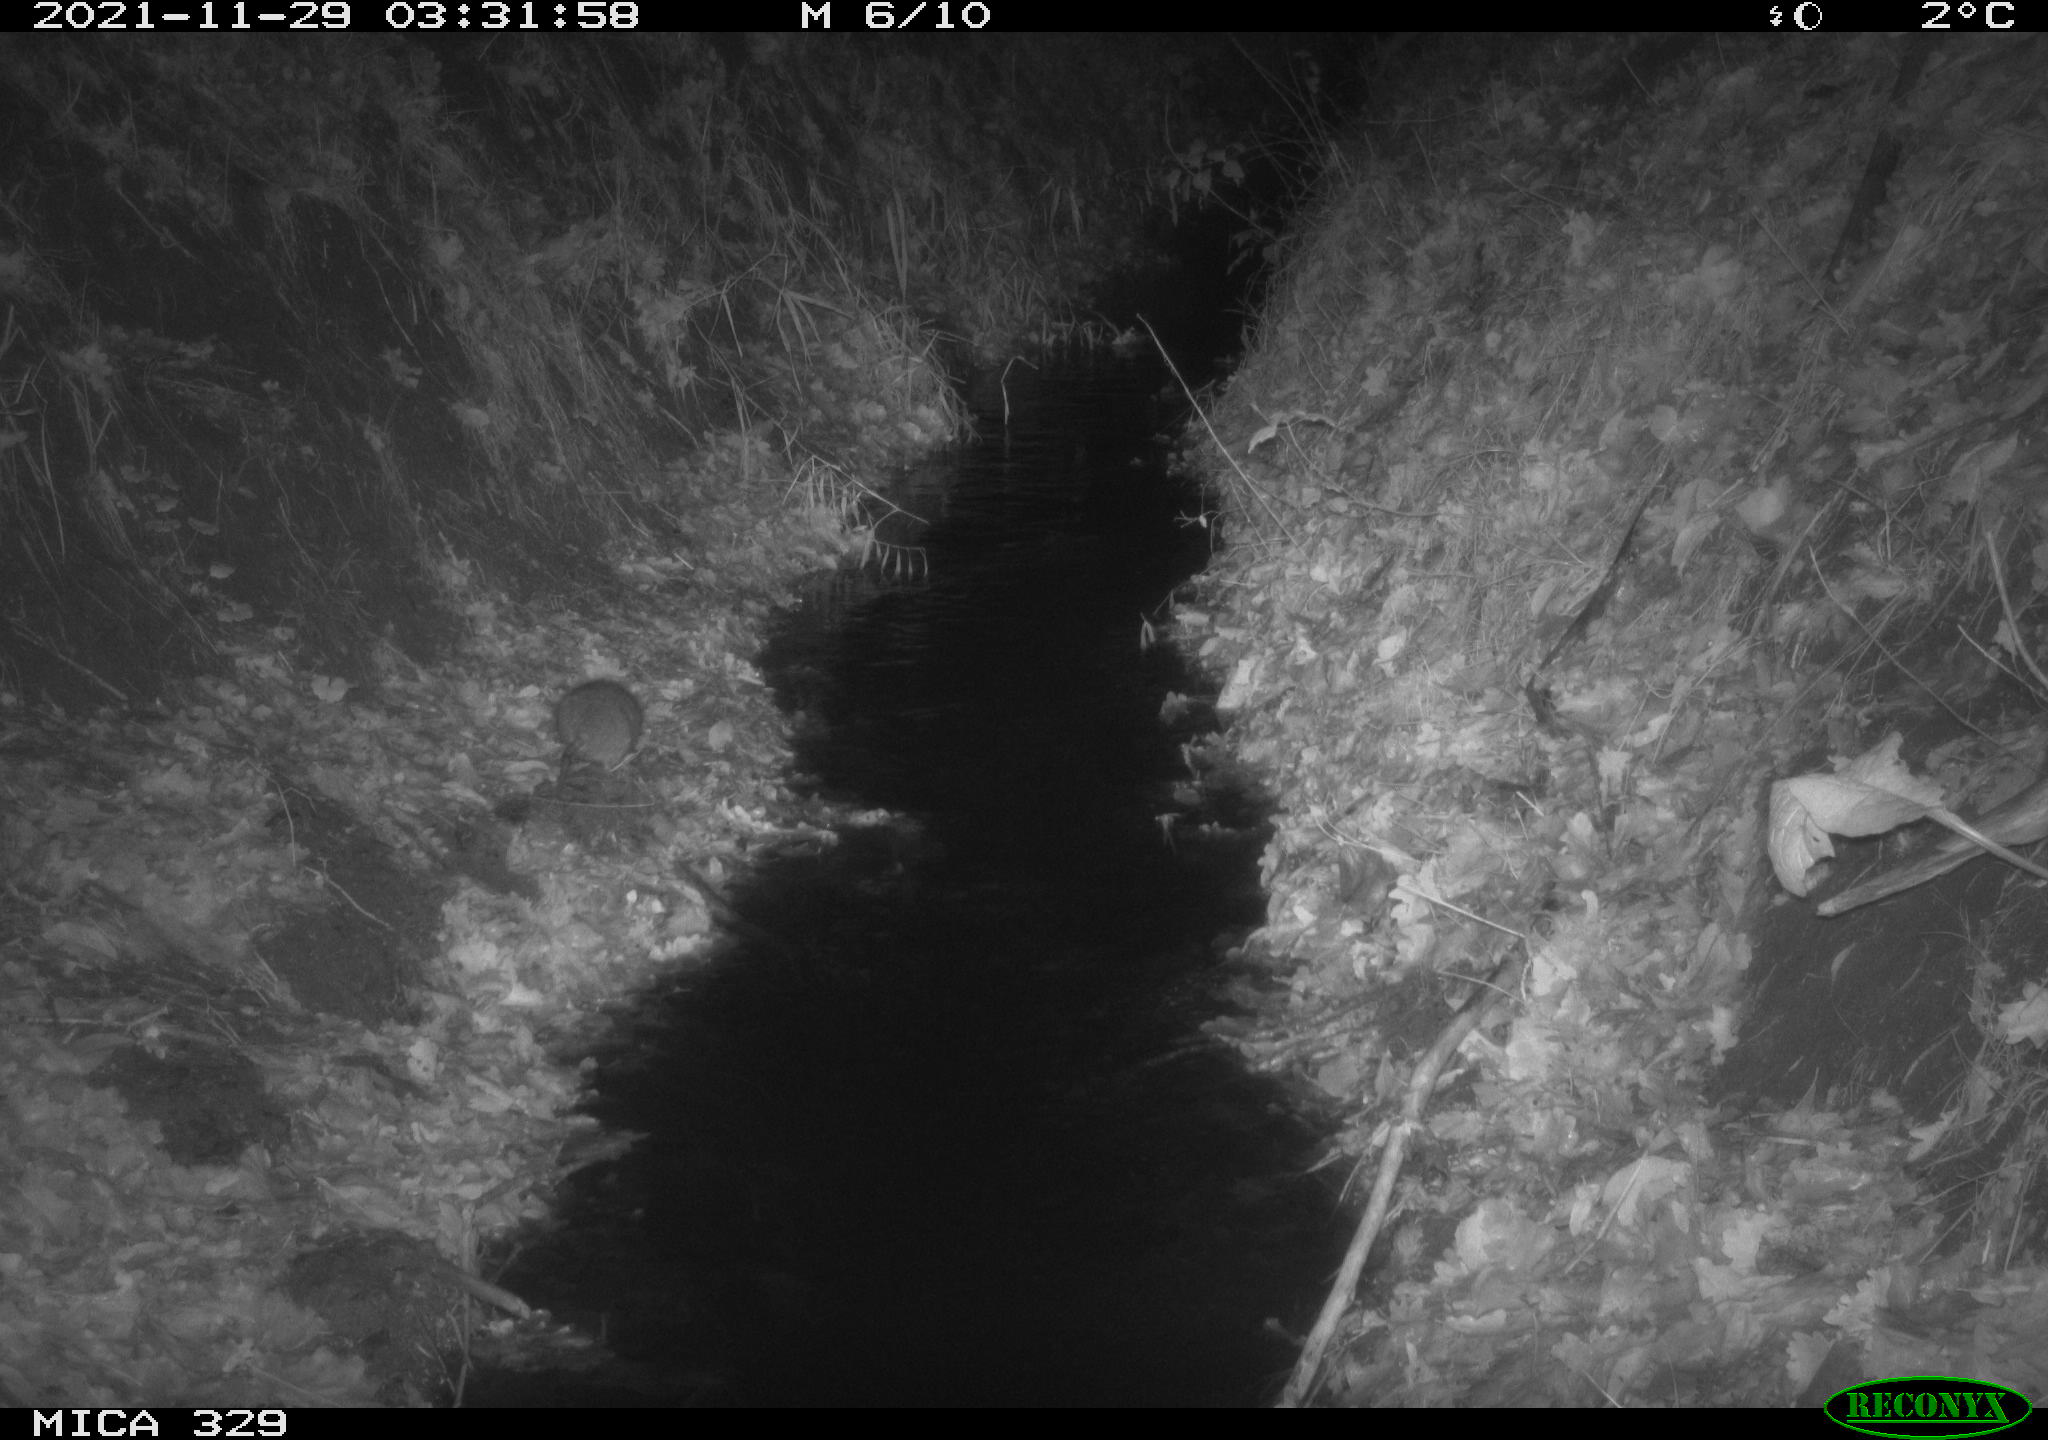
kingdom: Animalia
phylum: Chordata
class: Mammalia
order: Rodentia
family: Muridae
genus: Rattus
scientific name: Rattus norvegicus
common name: Brown rat
